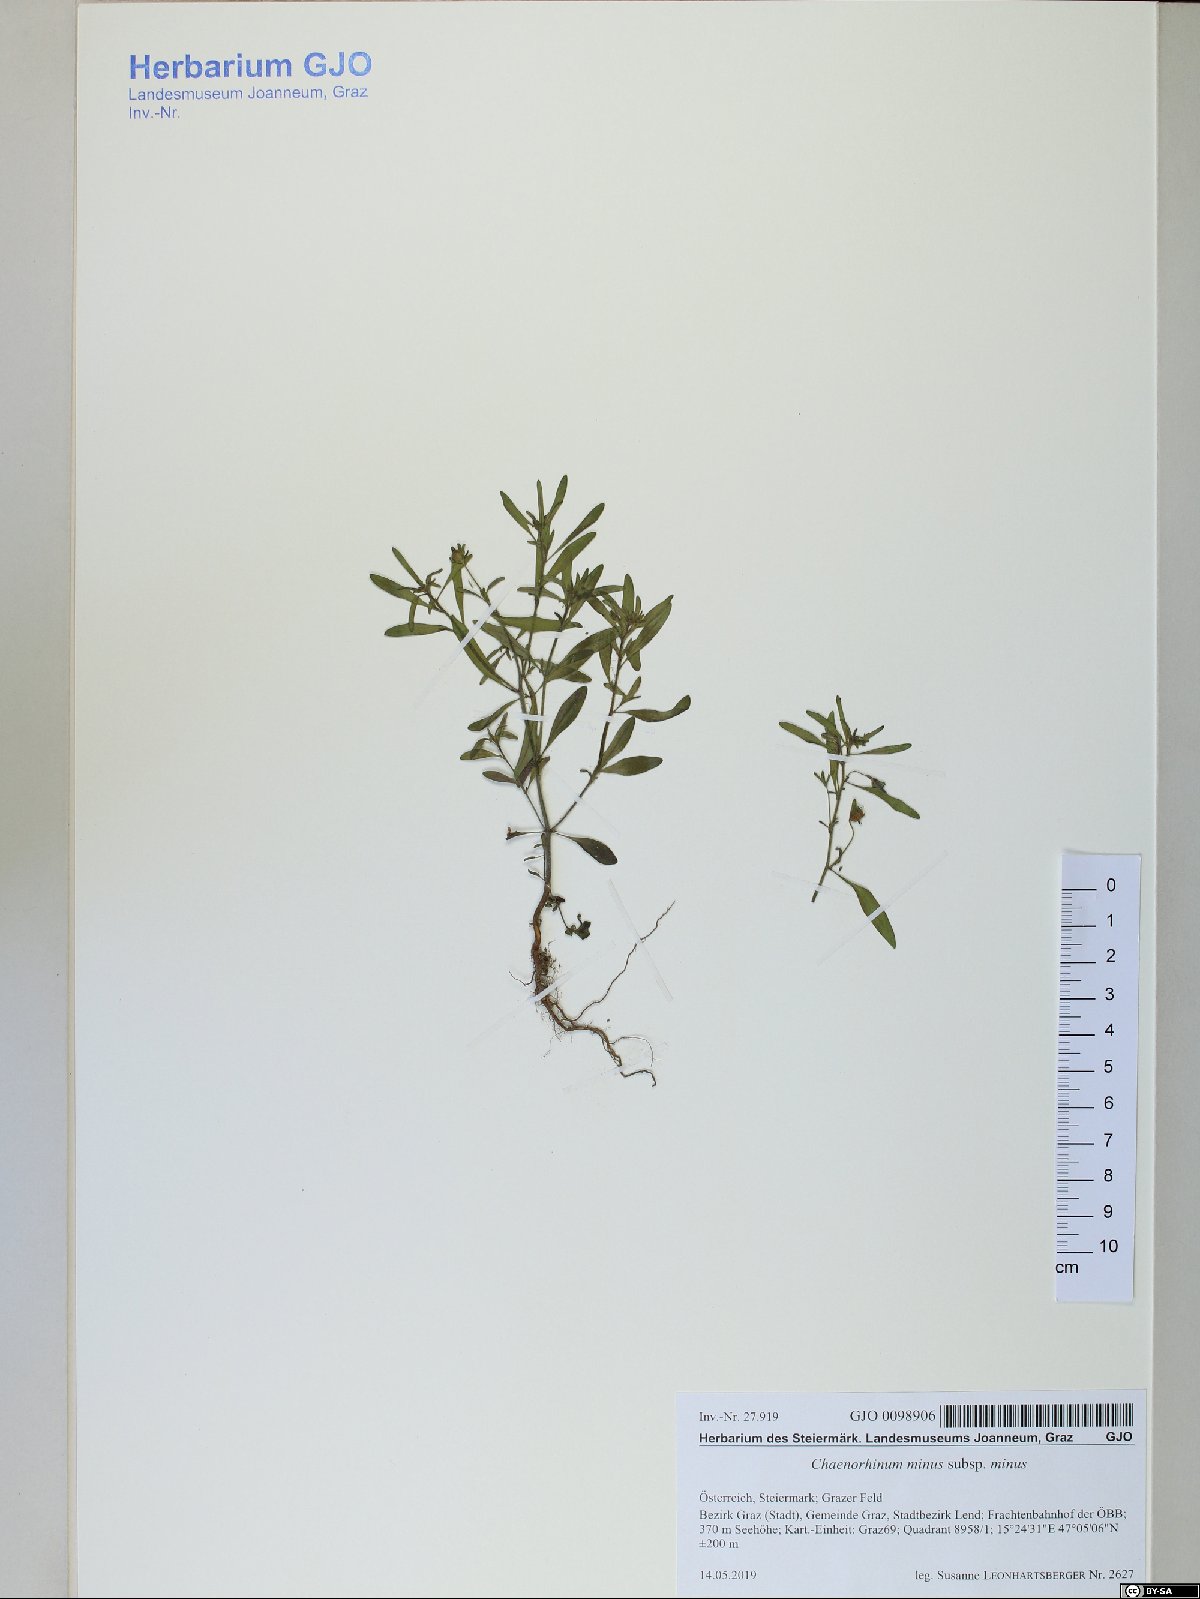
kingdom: Plantae
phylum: Tracheophyta
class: Magnoliopsida
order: Lamiales
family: Plantaginaceae
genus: Chaenorhinum
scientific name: Chaenorhinum minus
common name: Dwarf snapdragon
